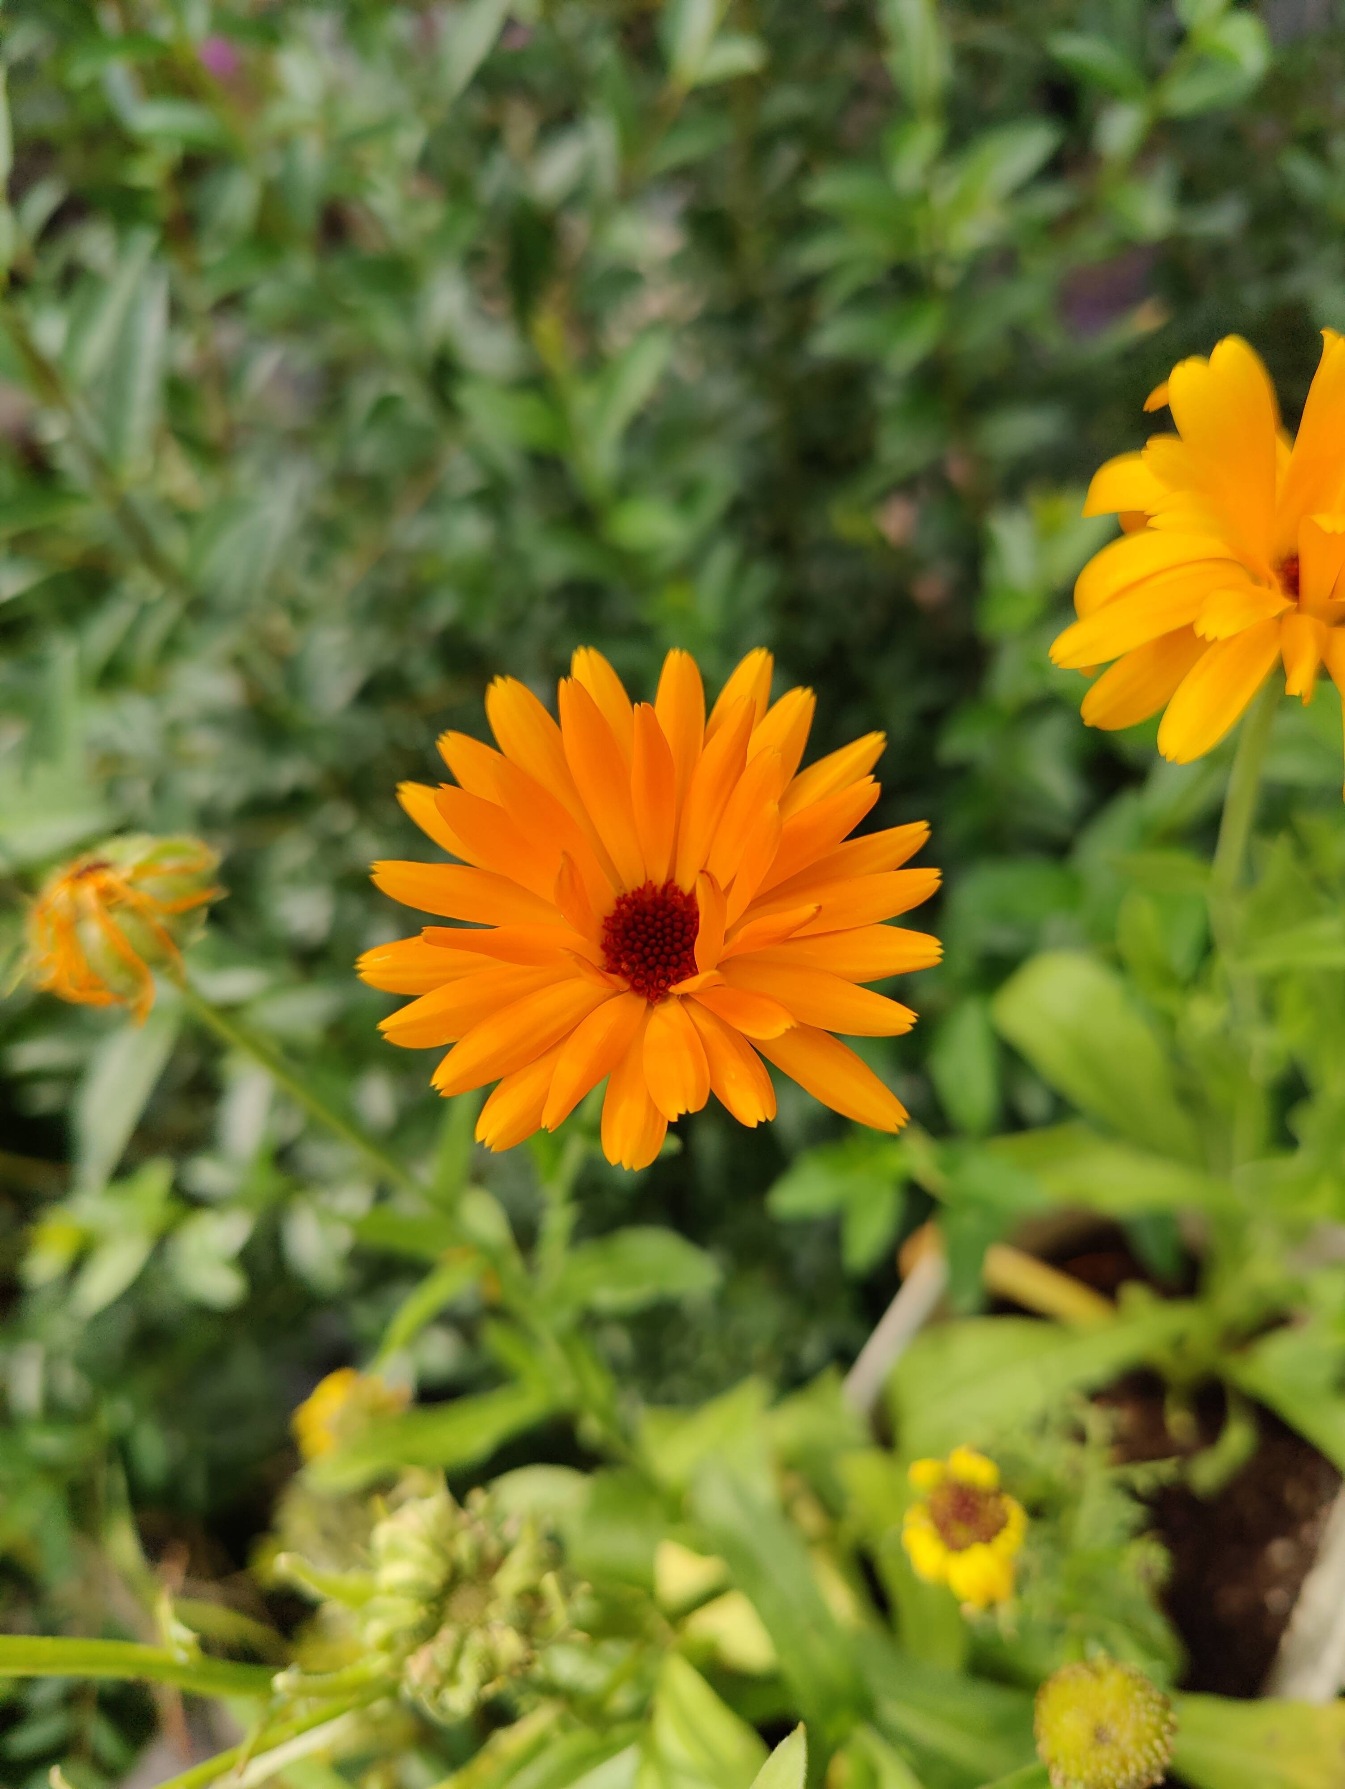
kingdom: Plantae
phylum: Tracheophyta
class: Magnoliopsida
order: Asterales
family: Asteraceae
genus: Calendula
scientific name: Calendula officinalis
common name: Have-morgenfrue
